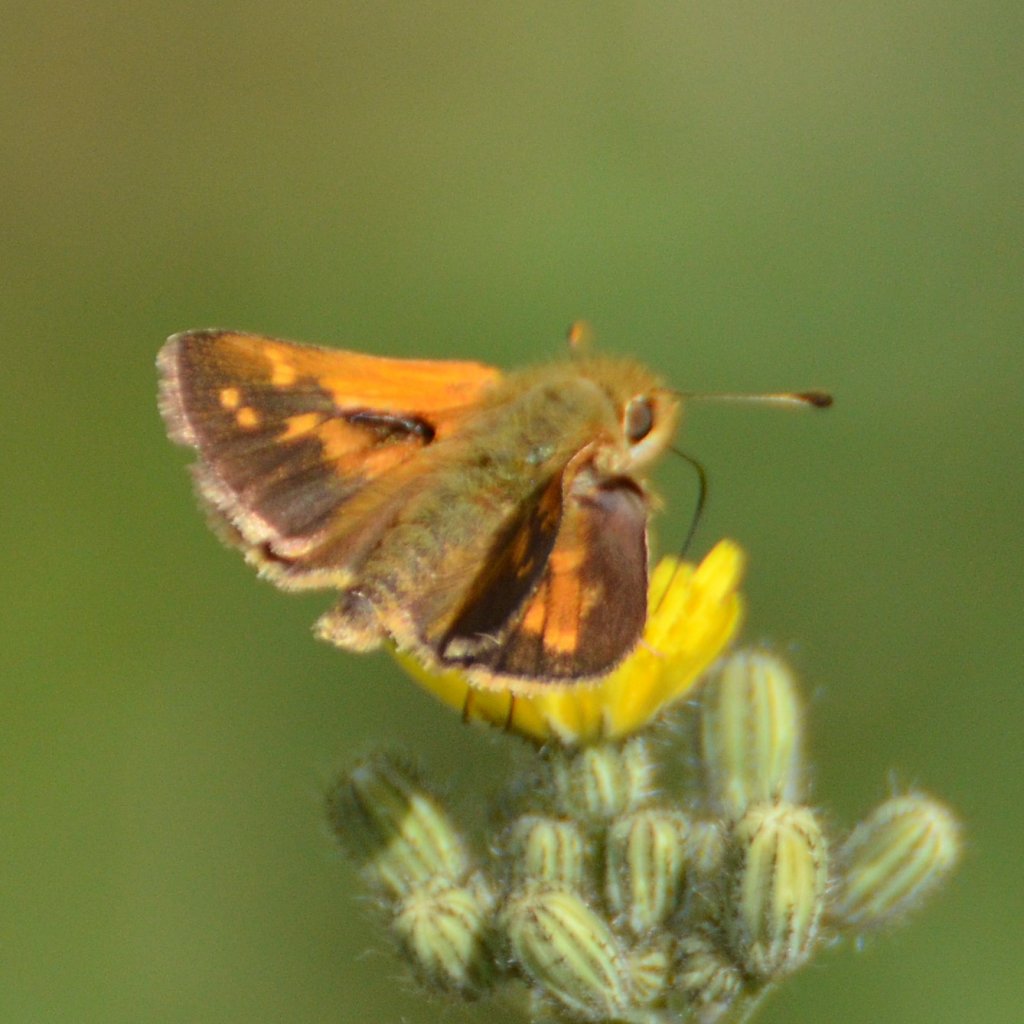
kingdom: Animalia
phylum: Arthropoda
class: Insecta
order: Lepidoptera
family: Hesperiidae
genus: Hesperia
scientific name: Hesperia comma
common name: Common Branded Skipper
